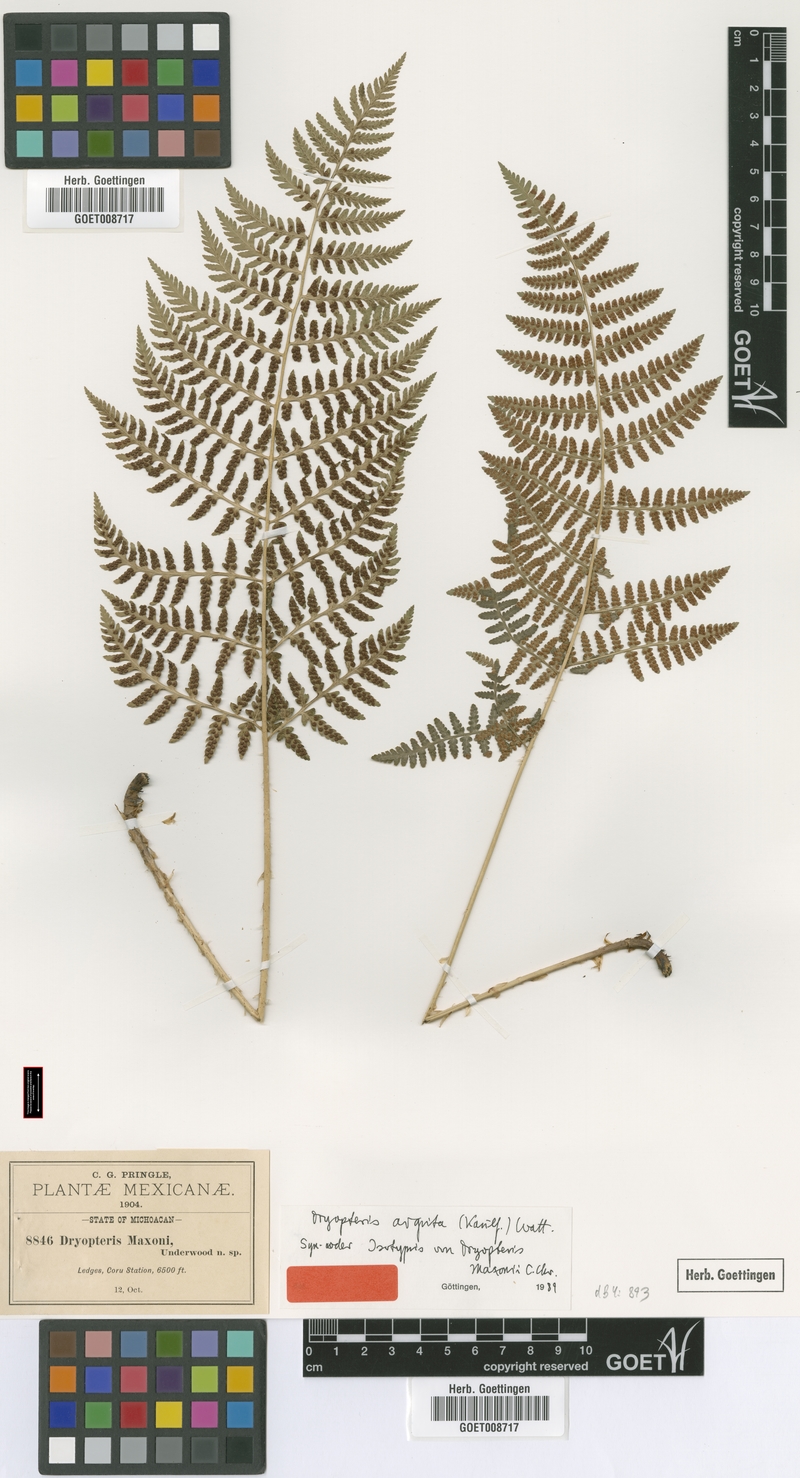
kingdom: Plantae
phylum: Tracheophyta
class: Polypodiopsida
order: Polypodiales
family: Dryopteridaceae
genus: Dryopteris
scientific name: Dryopteris arguta
